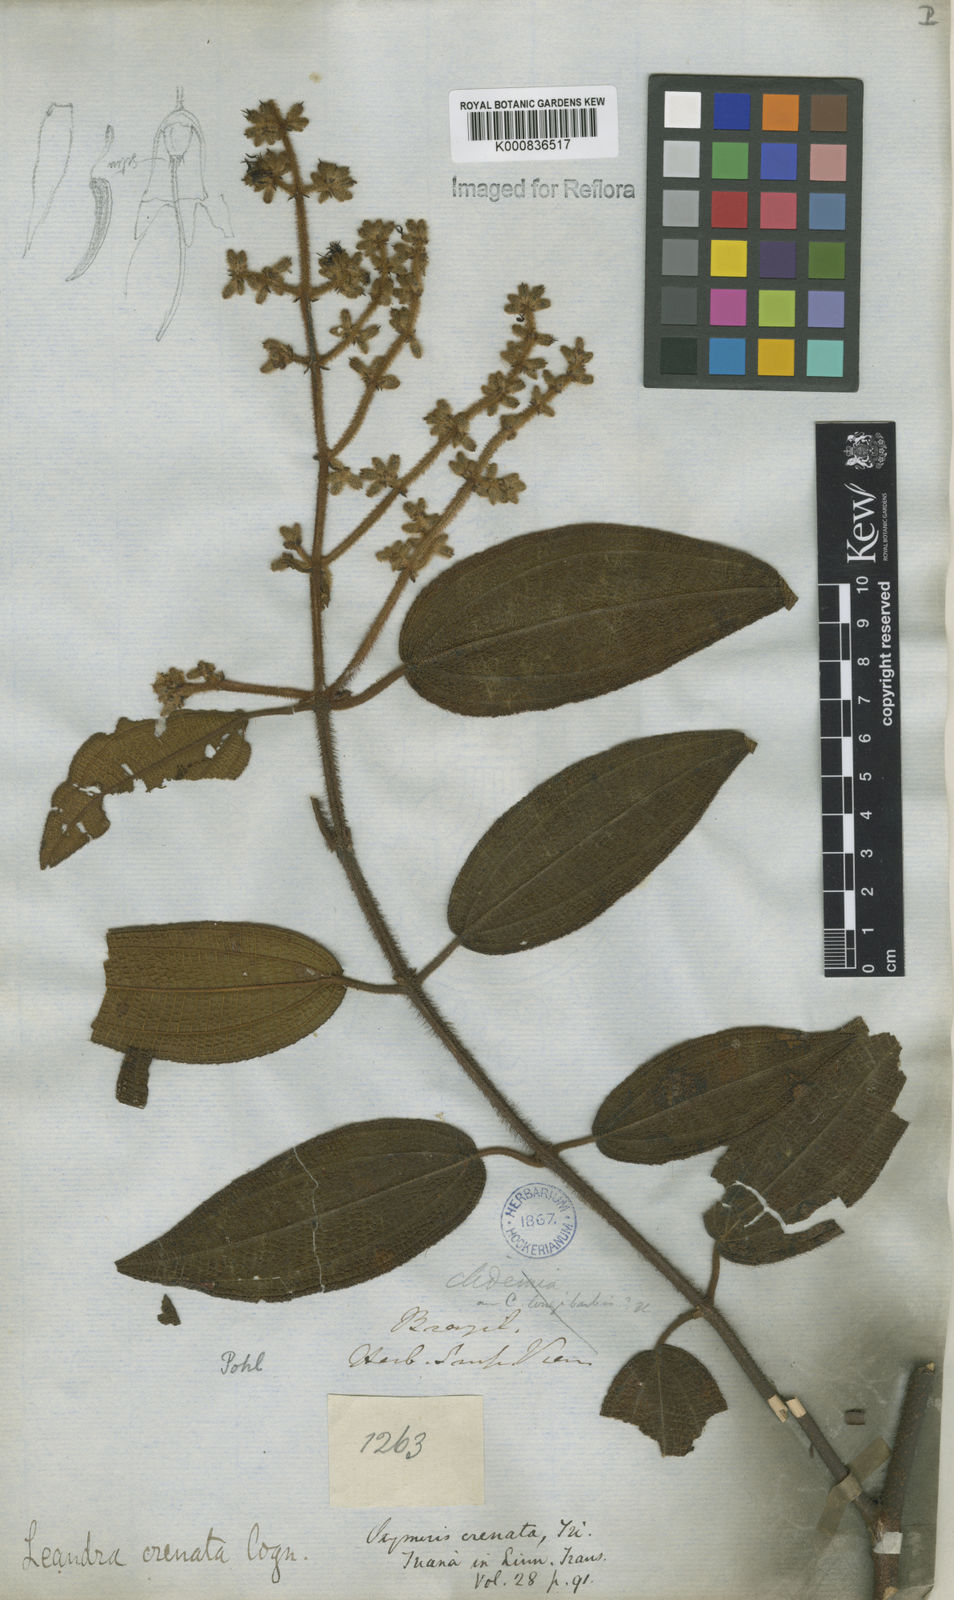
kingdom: Plantae
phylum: Tracheophyta
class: Magnoliopsida
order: Myrtales
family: Melastomataceae
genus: Miconia
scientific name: Miconia leacrenata
